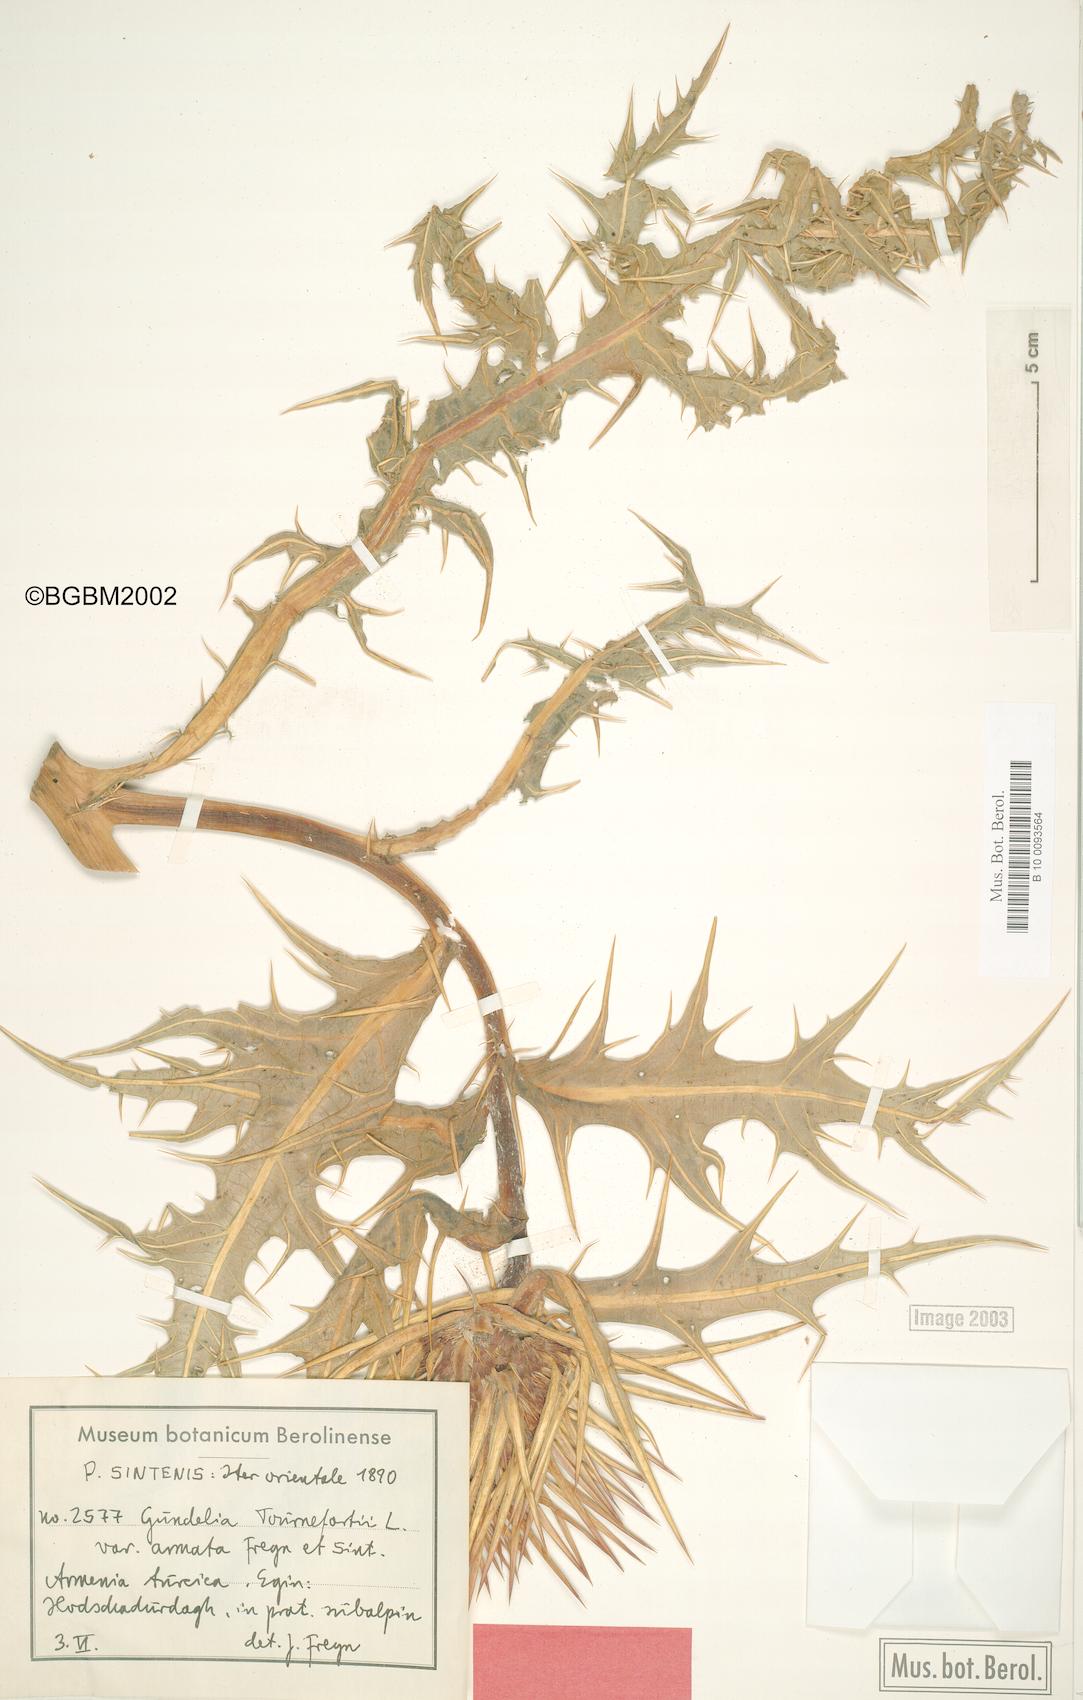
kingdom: Plantae
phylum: Tracheophyta
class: Magnoliopsida
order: Asterales
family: Asteraceae
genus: Gundelia
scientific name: Gundelia dersim
